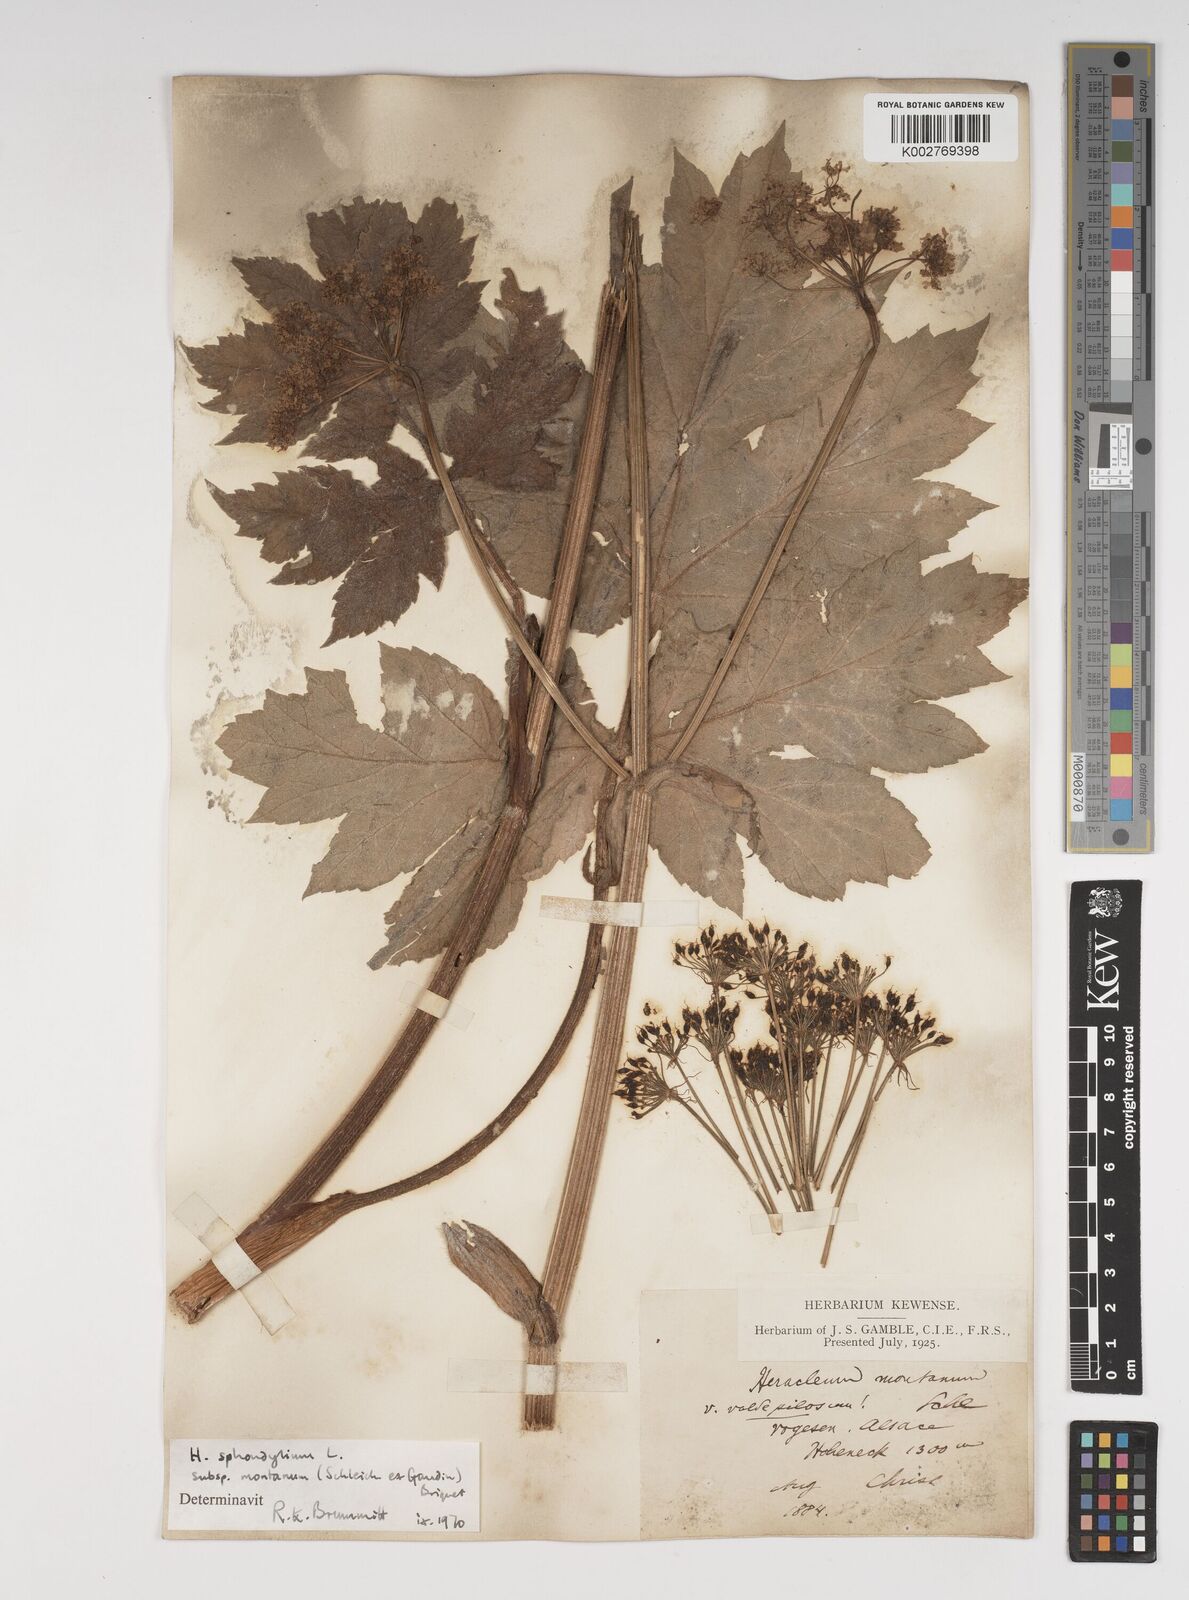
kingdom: Plantae
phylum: Tracheophyta
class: Magnoliopsida
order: Apiales
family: Apiaceae
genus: Heracleum
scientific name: Heracleum sphondylium
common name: Hogweed
